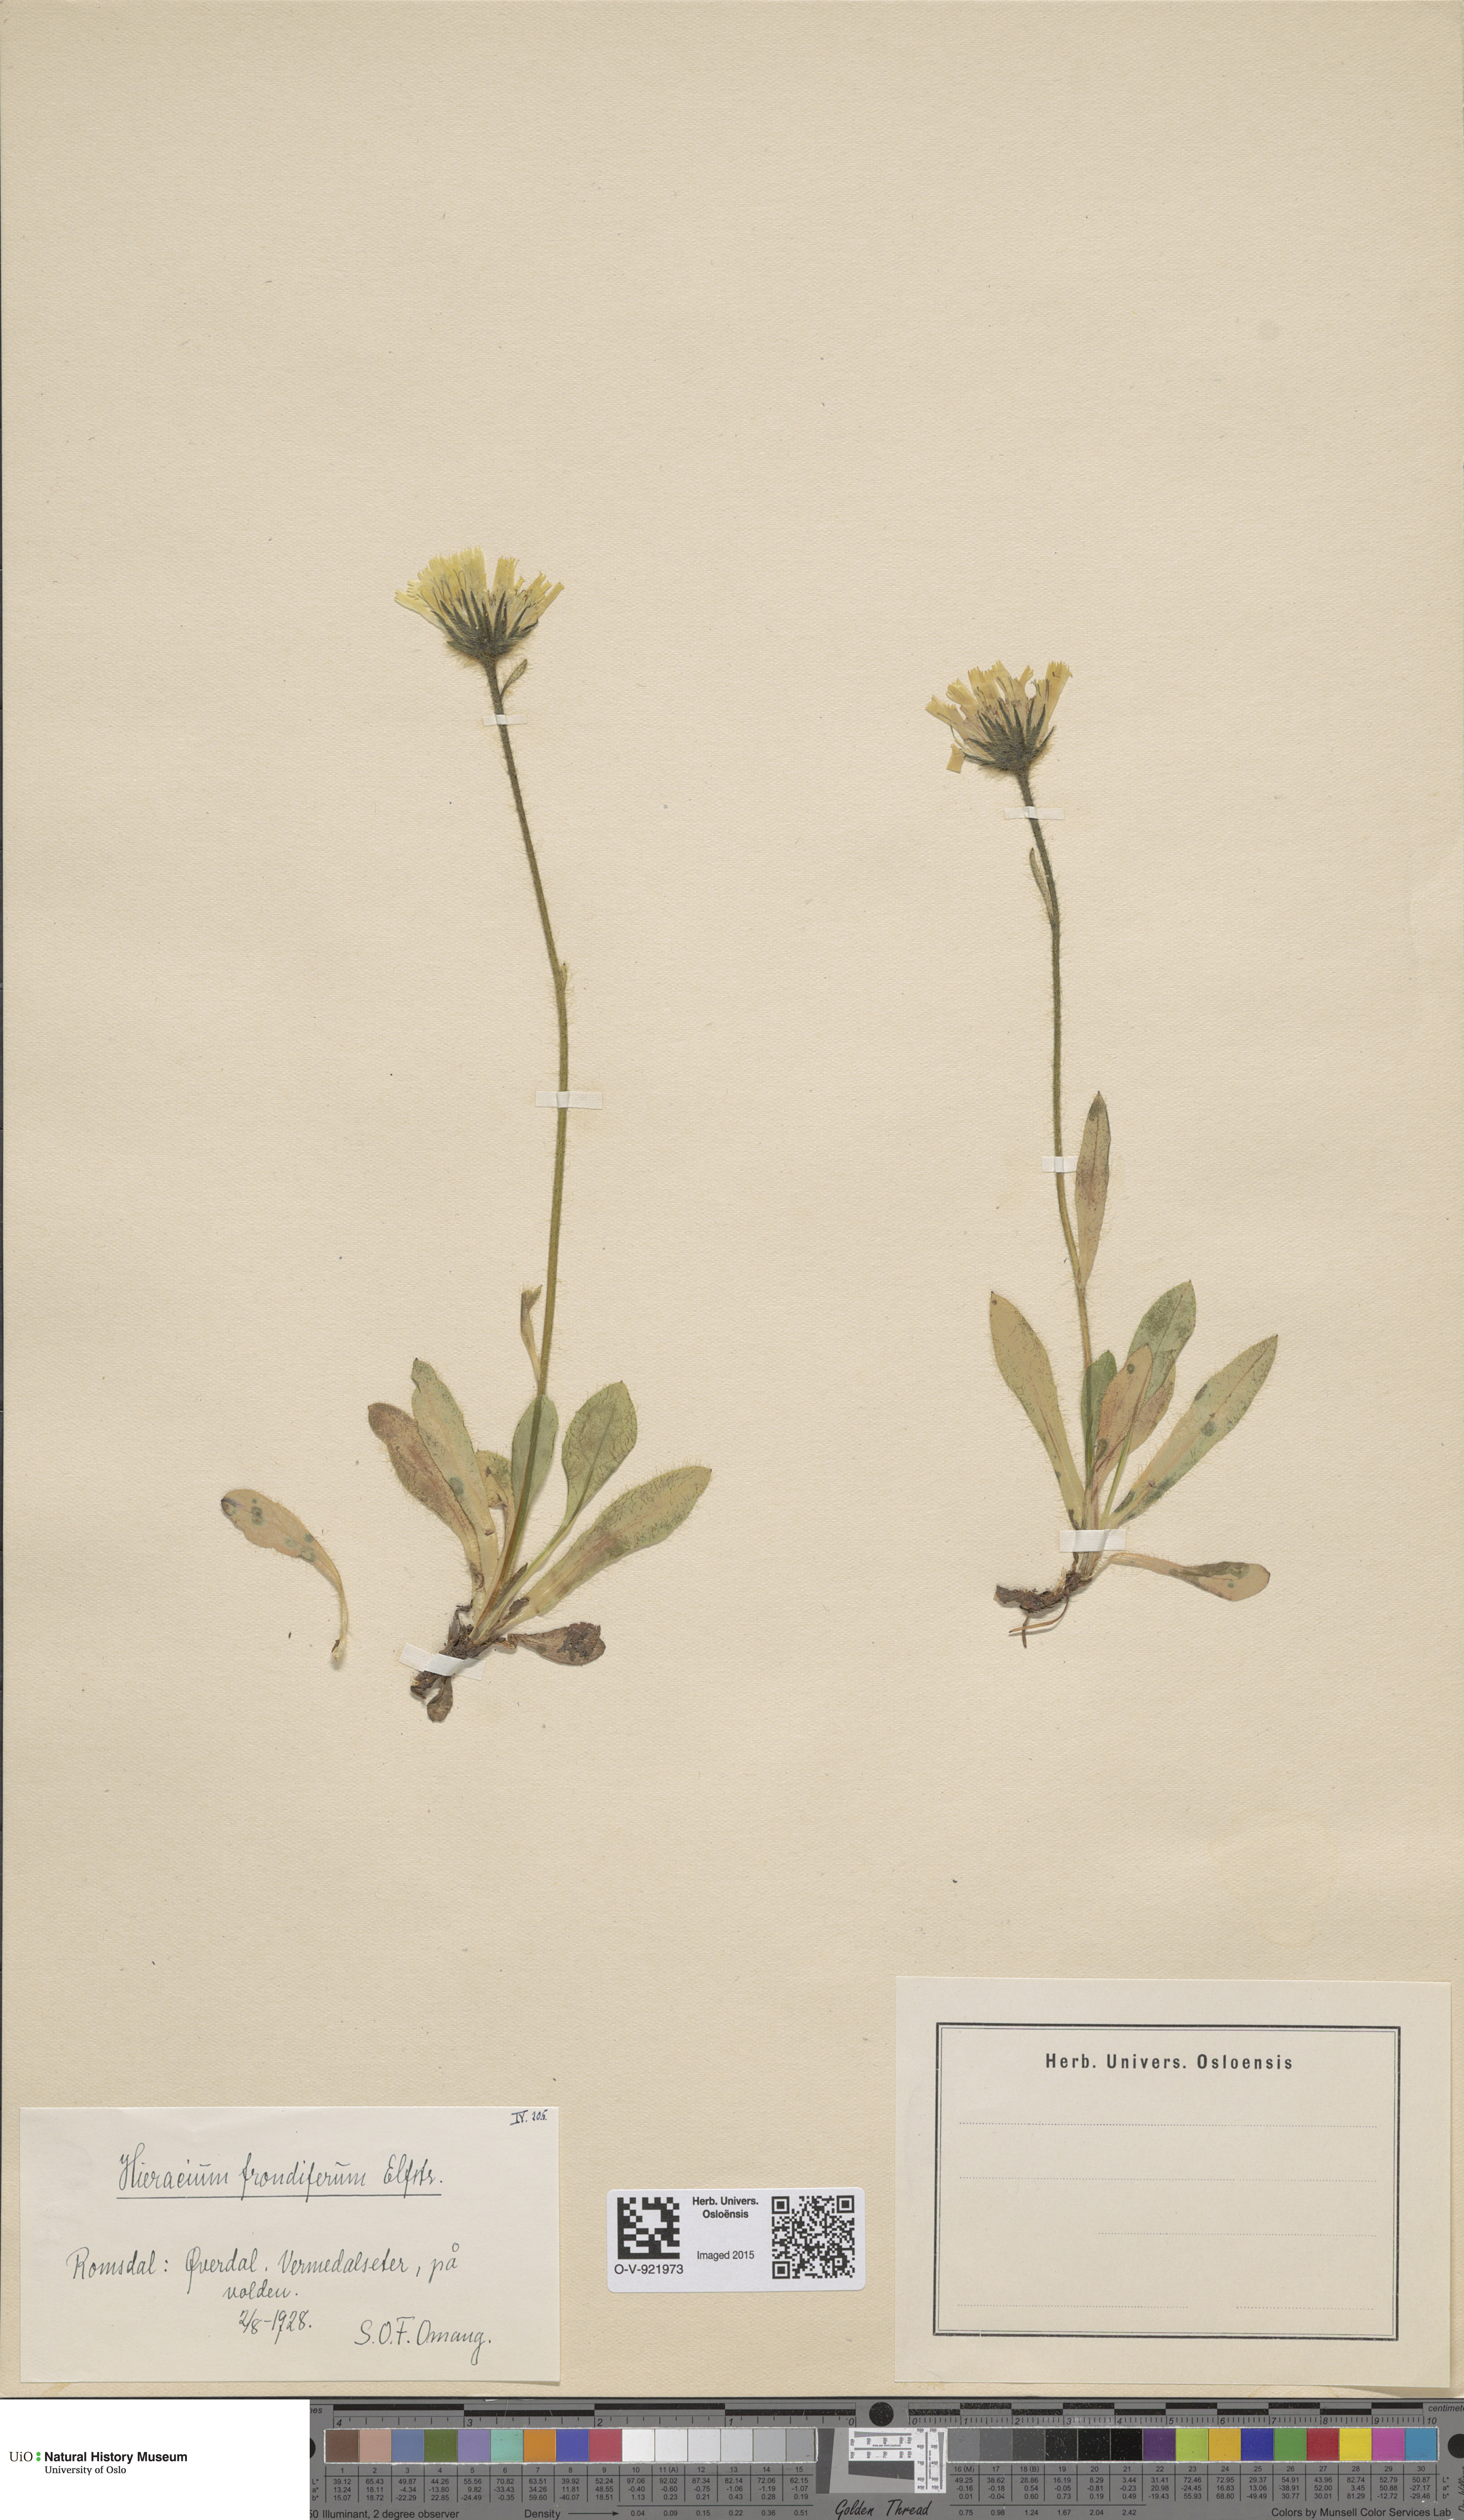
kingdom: Plantae
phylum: Tracheophyta
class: Magnoliopsida
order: Asterales
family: Asteraceae
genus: Hieracium
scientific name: Hieracium alpinum
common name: Alpine hawkweed
